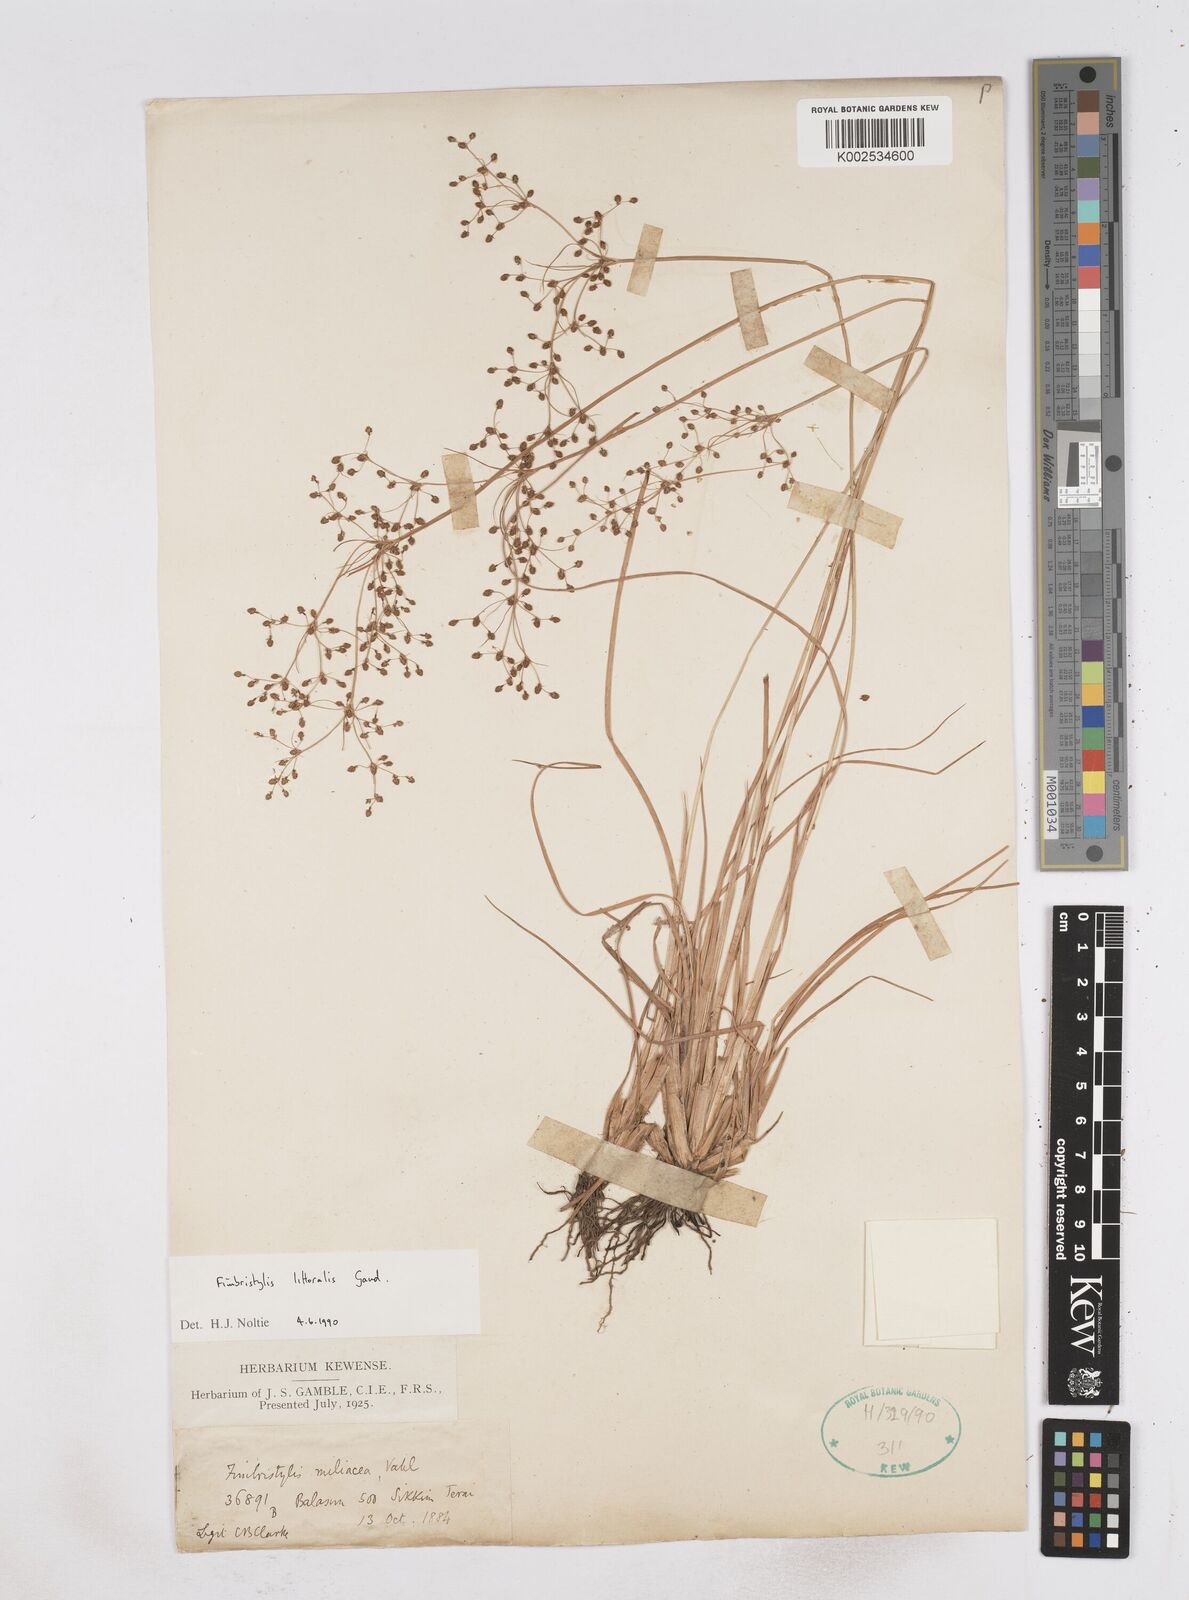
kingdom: Plantae
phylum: Tracheophyta
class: Liliopsida
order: Poales
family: Cyperaceae
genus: Fimbristylis
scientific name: Fimbristylis littoralis
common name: Fimbry
